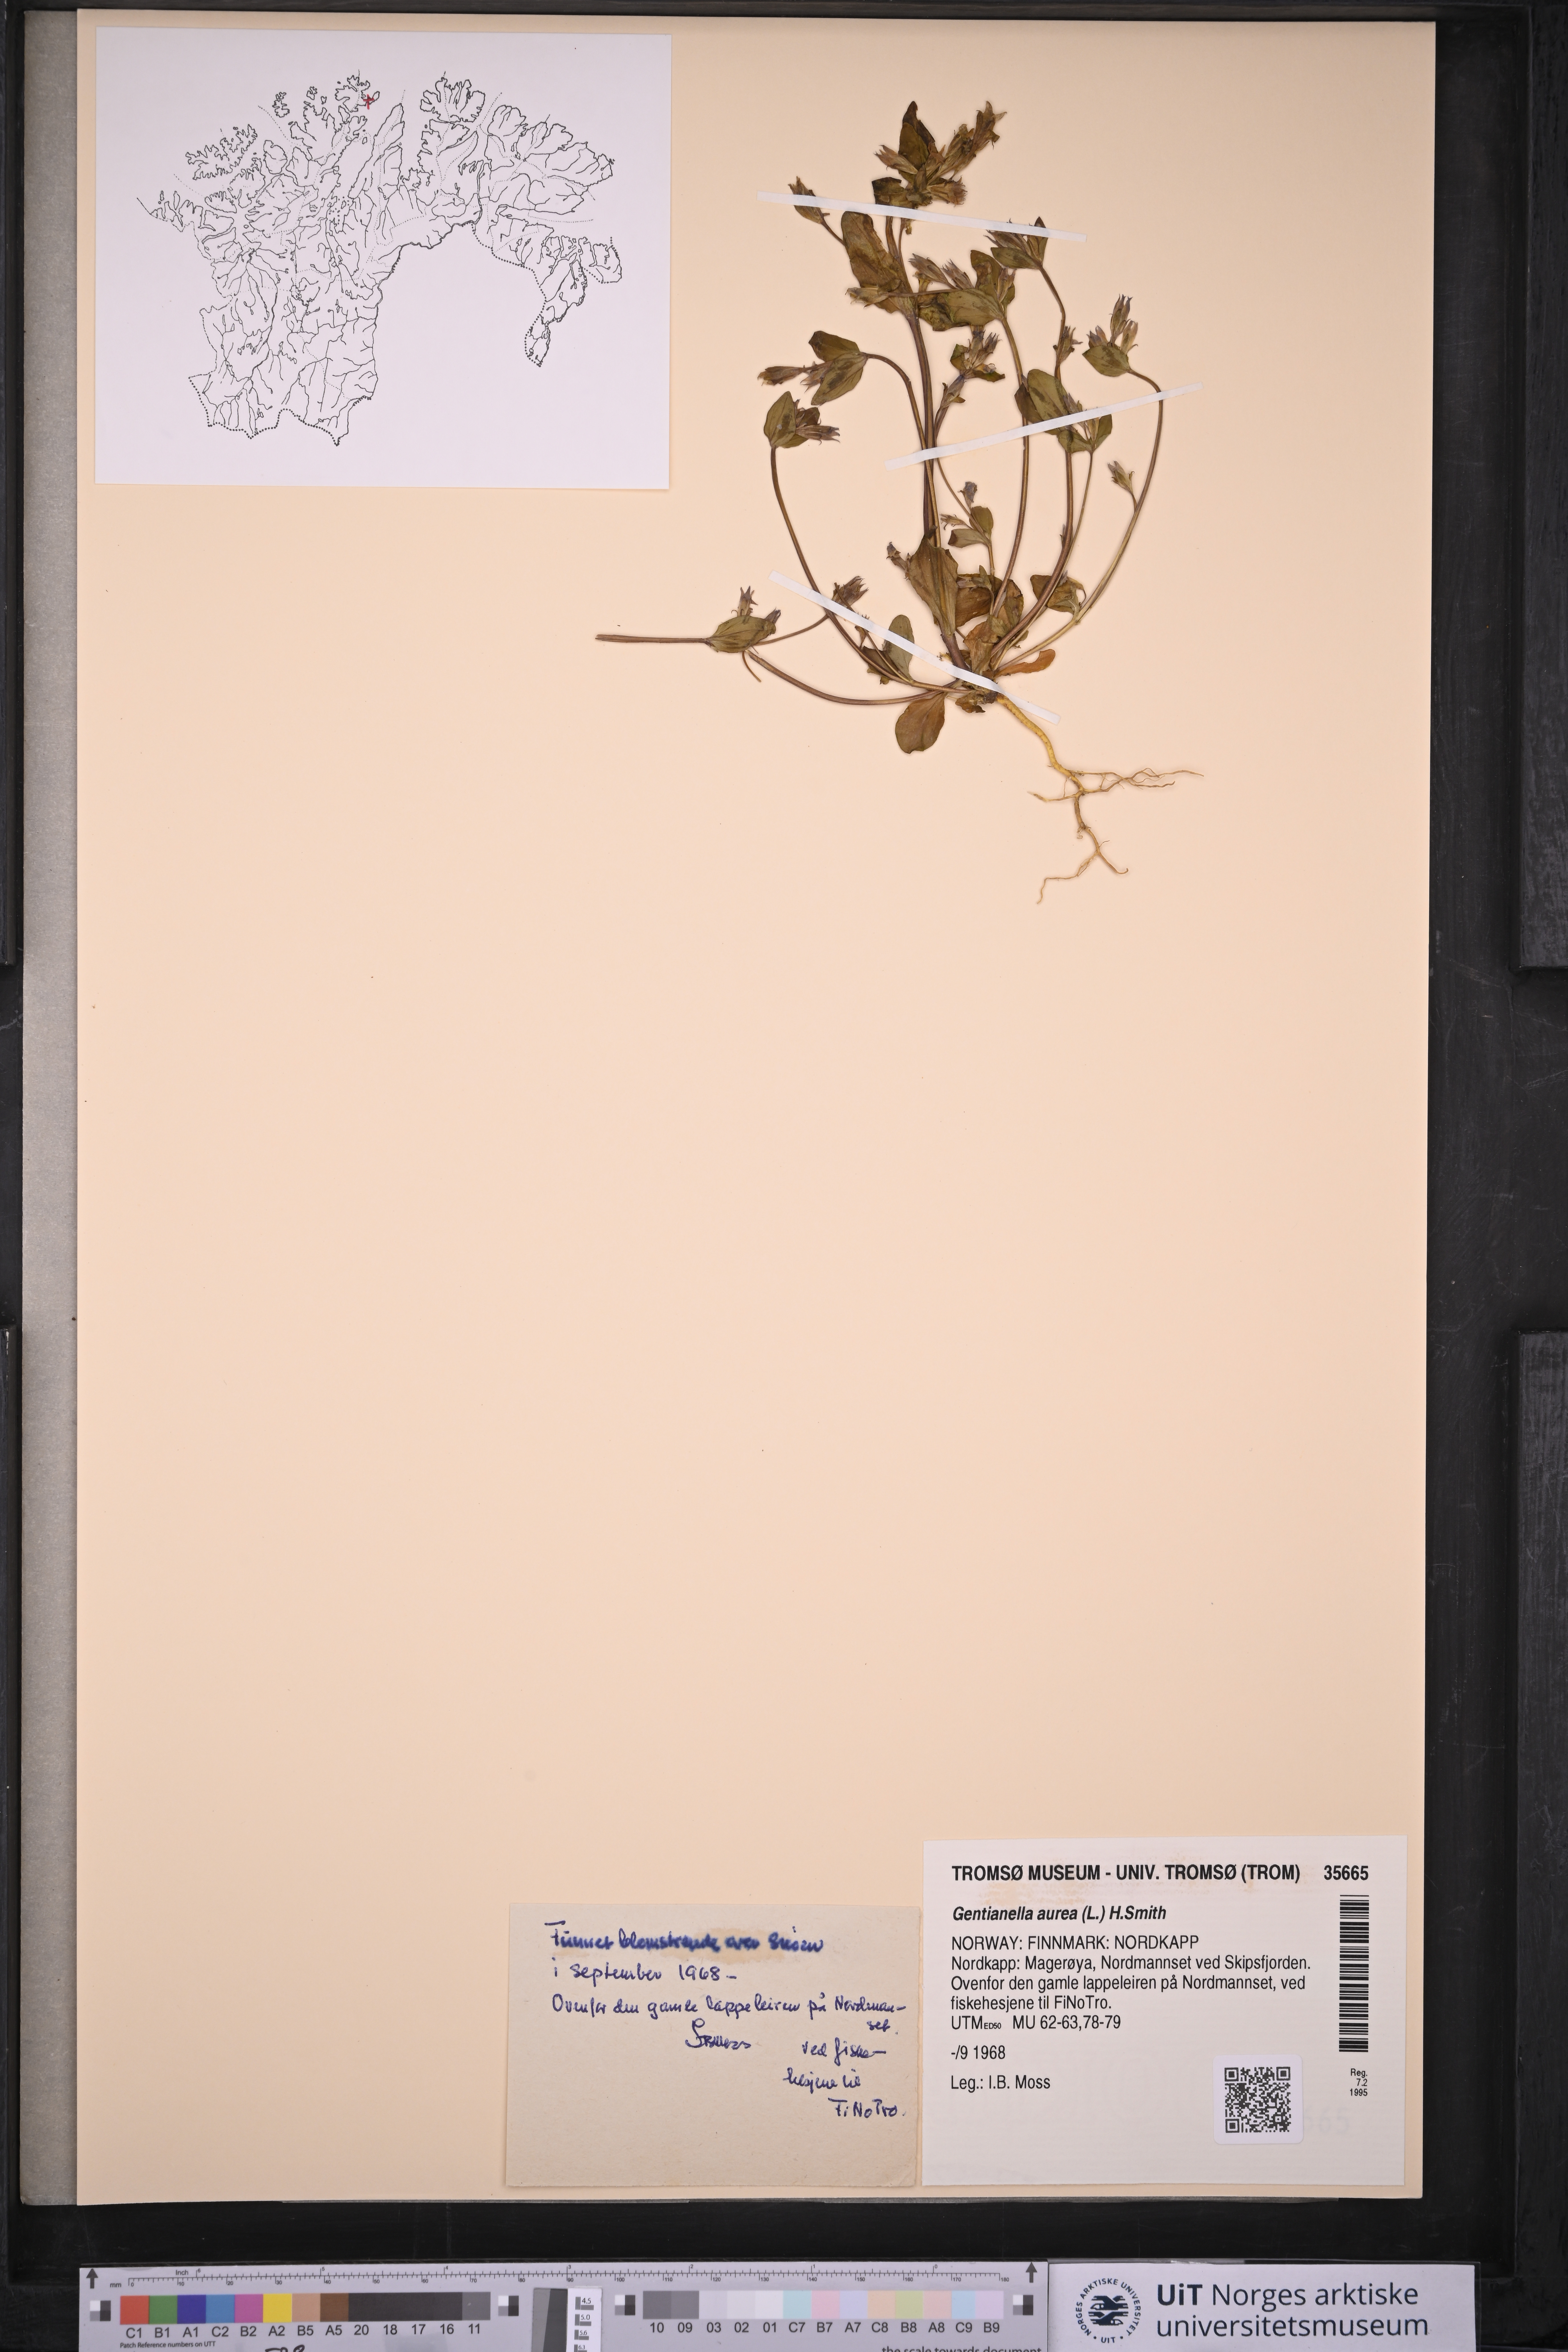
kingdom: Plantae
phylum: Tracheophyta
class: Magnoliopsida
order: Gentianales
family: Gentianaceae
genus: Gentianella
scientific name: Gentianella aurea
